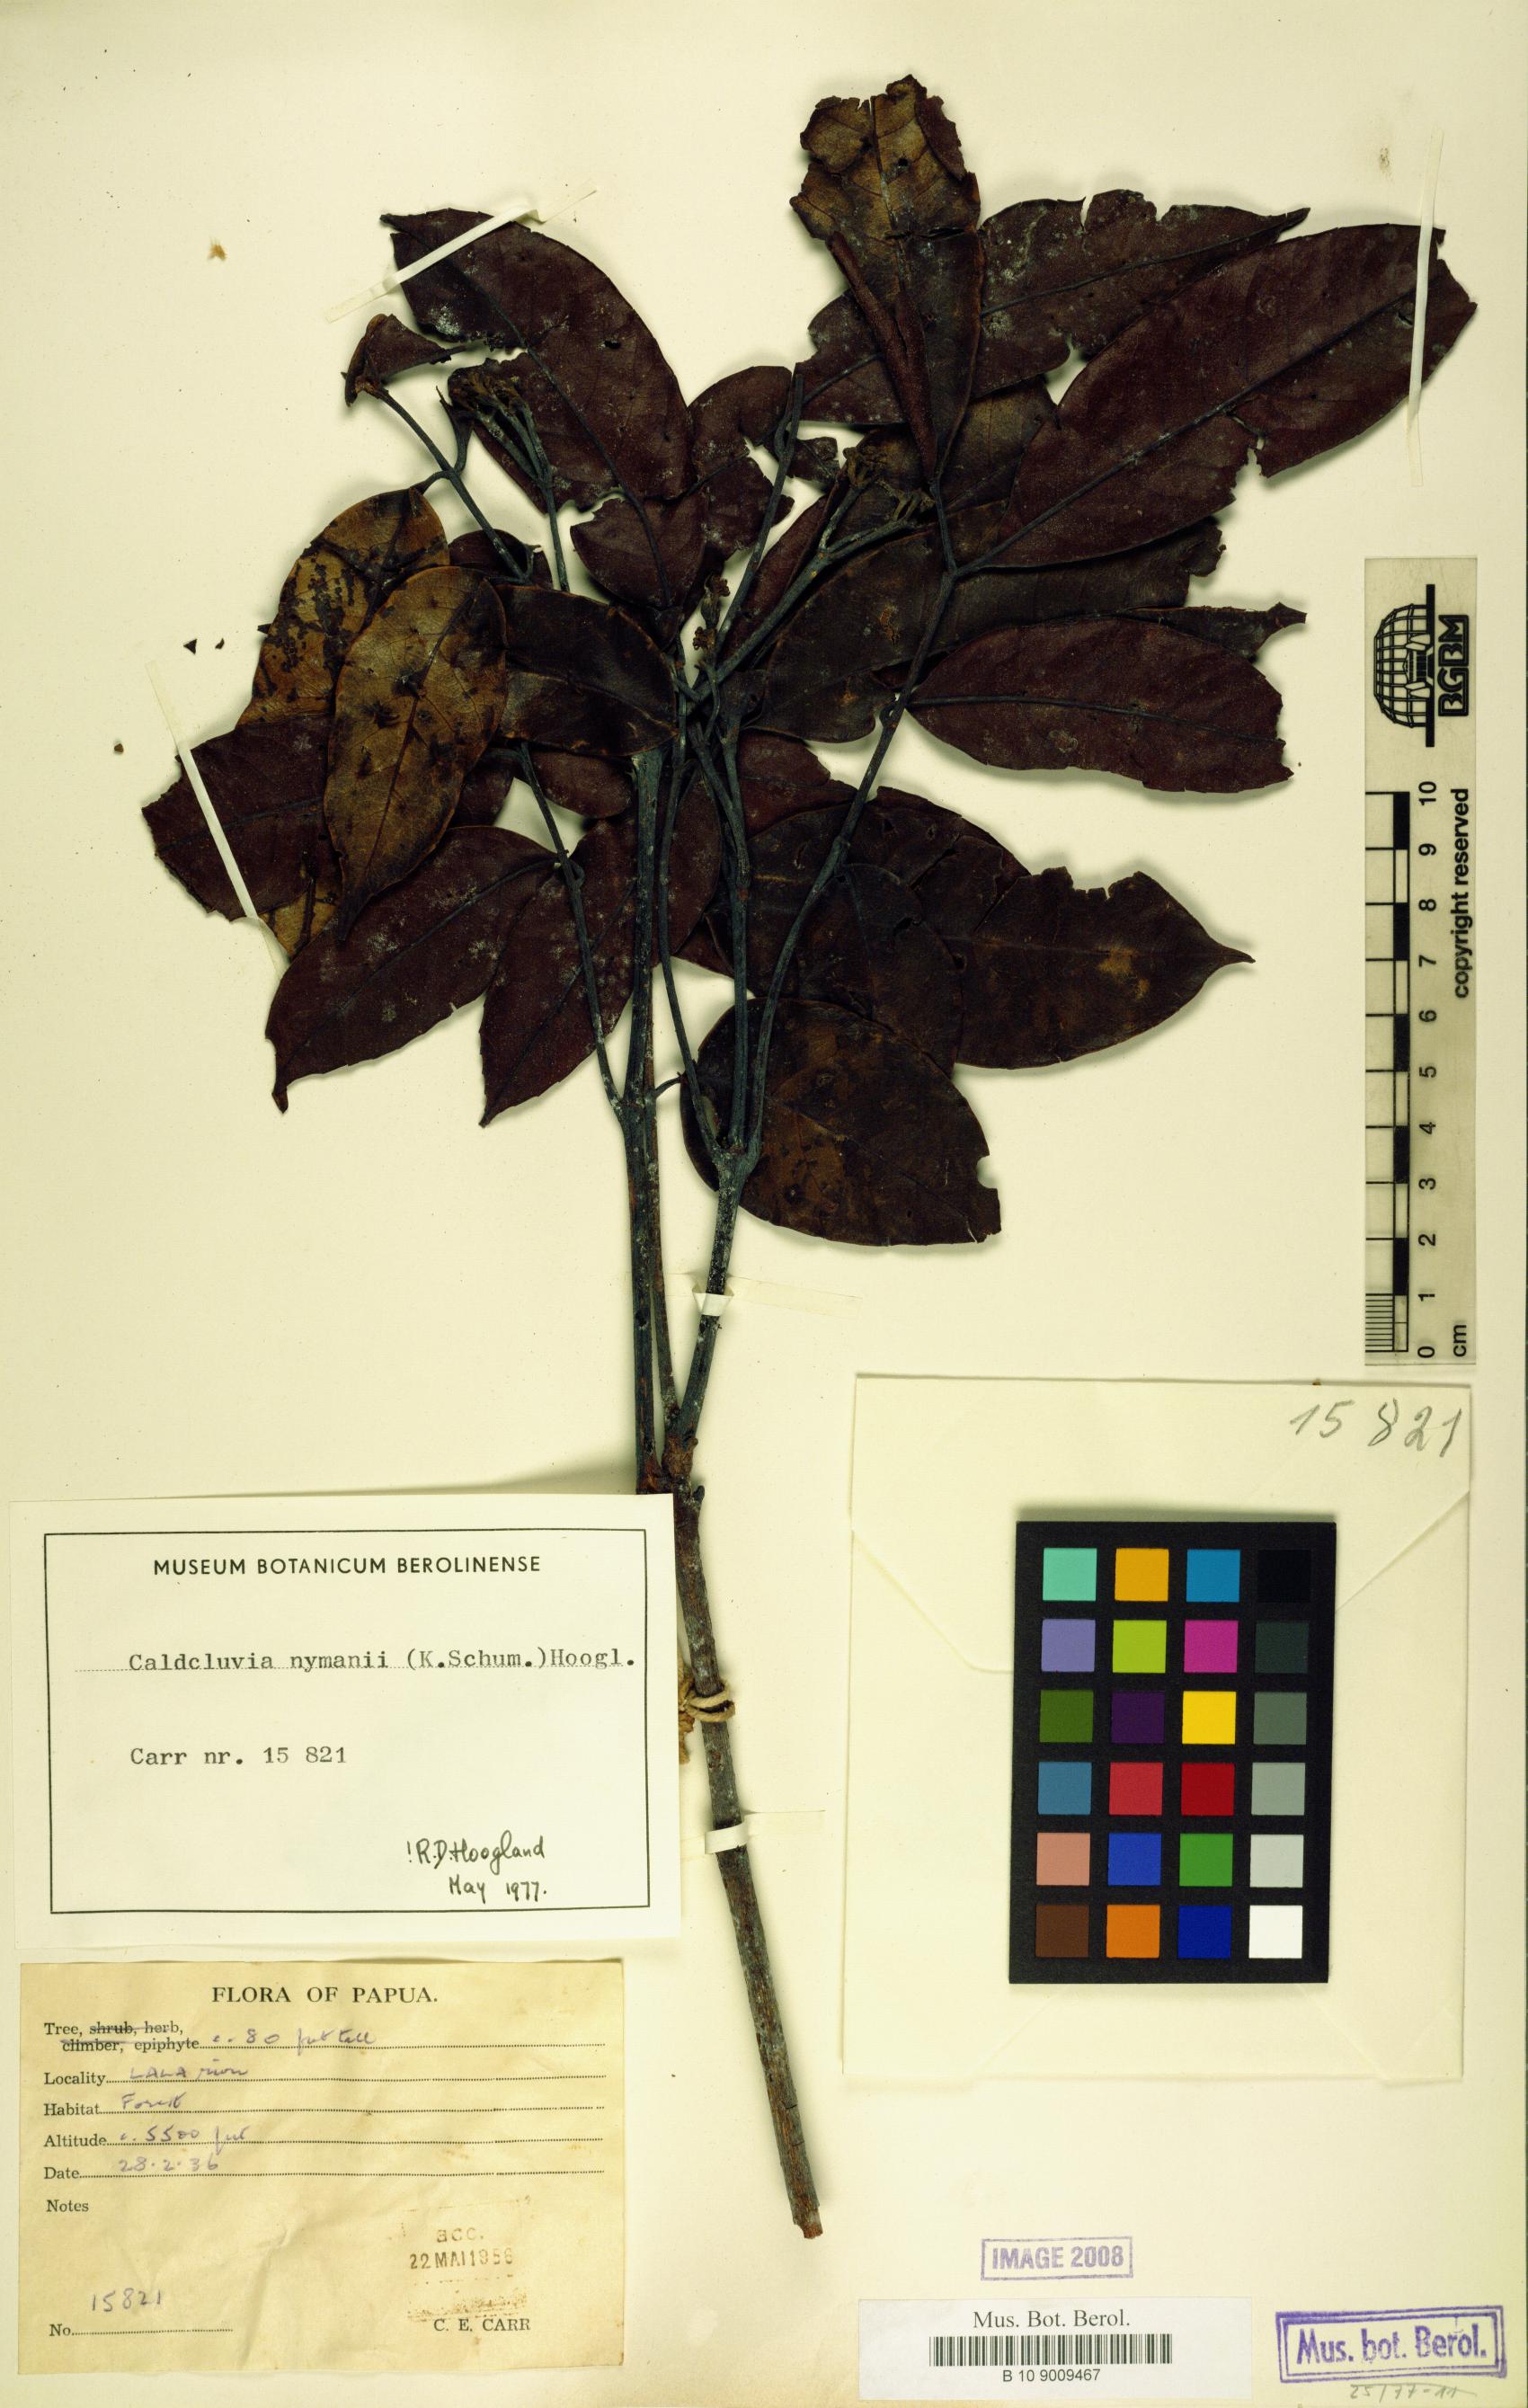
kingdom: Plantae
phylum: Tracheophyta
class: Magnoliopsida
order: Oxalidales
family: Cunoniaceae
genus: Opocunonia
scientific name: Opocunonia nymanii
